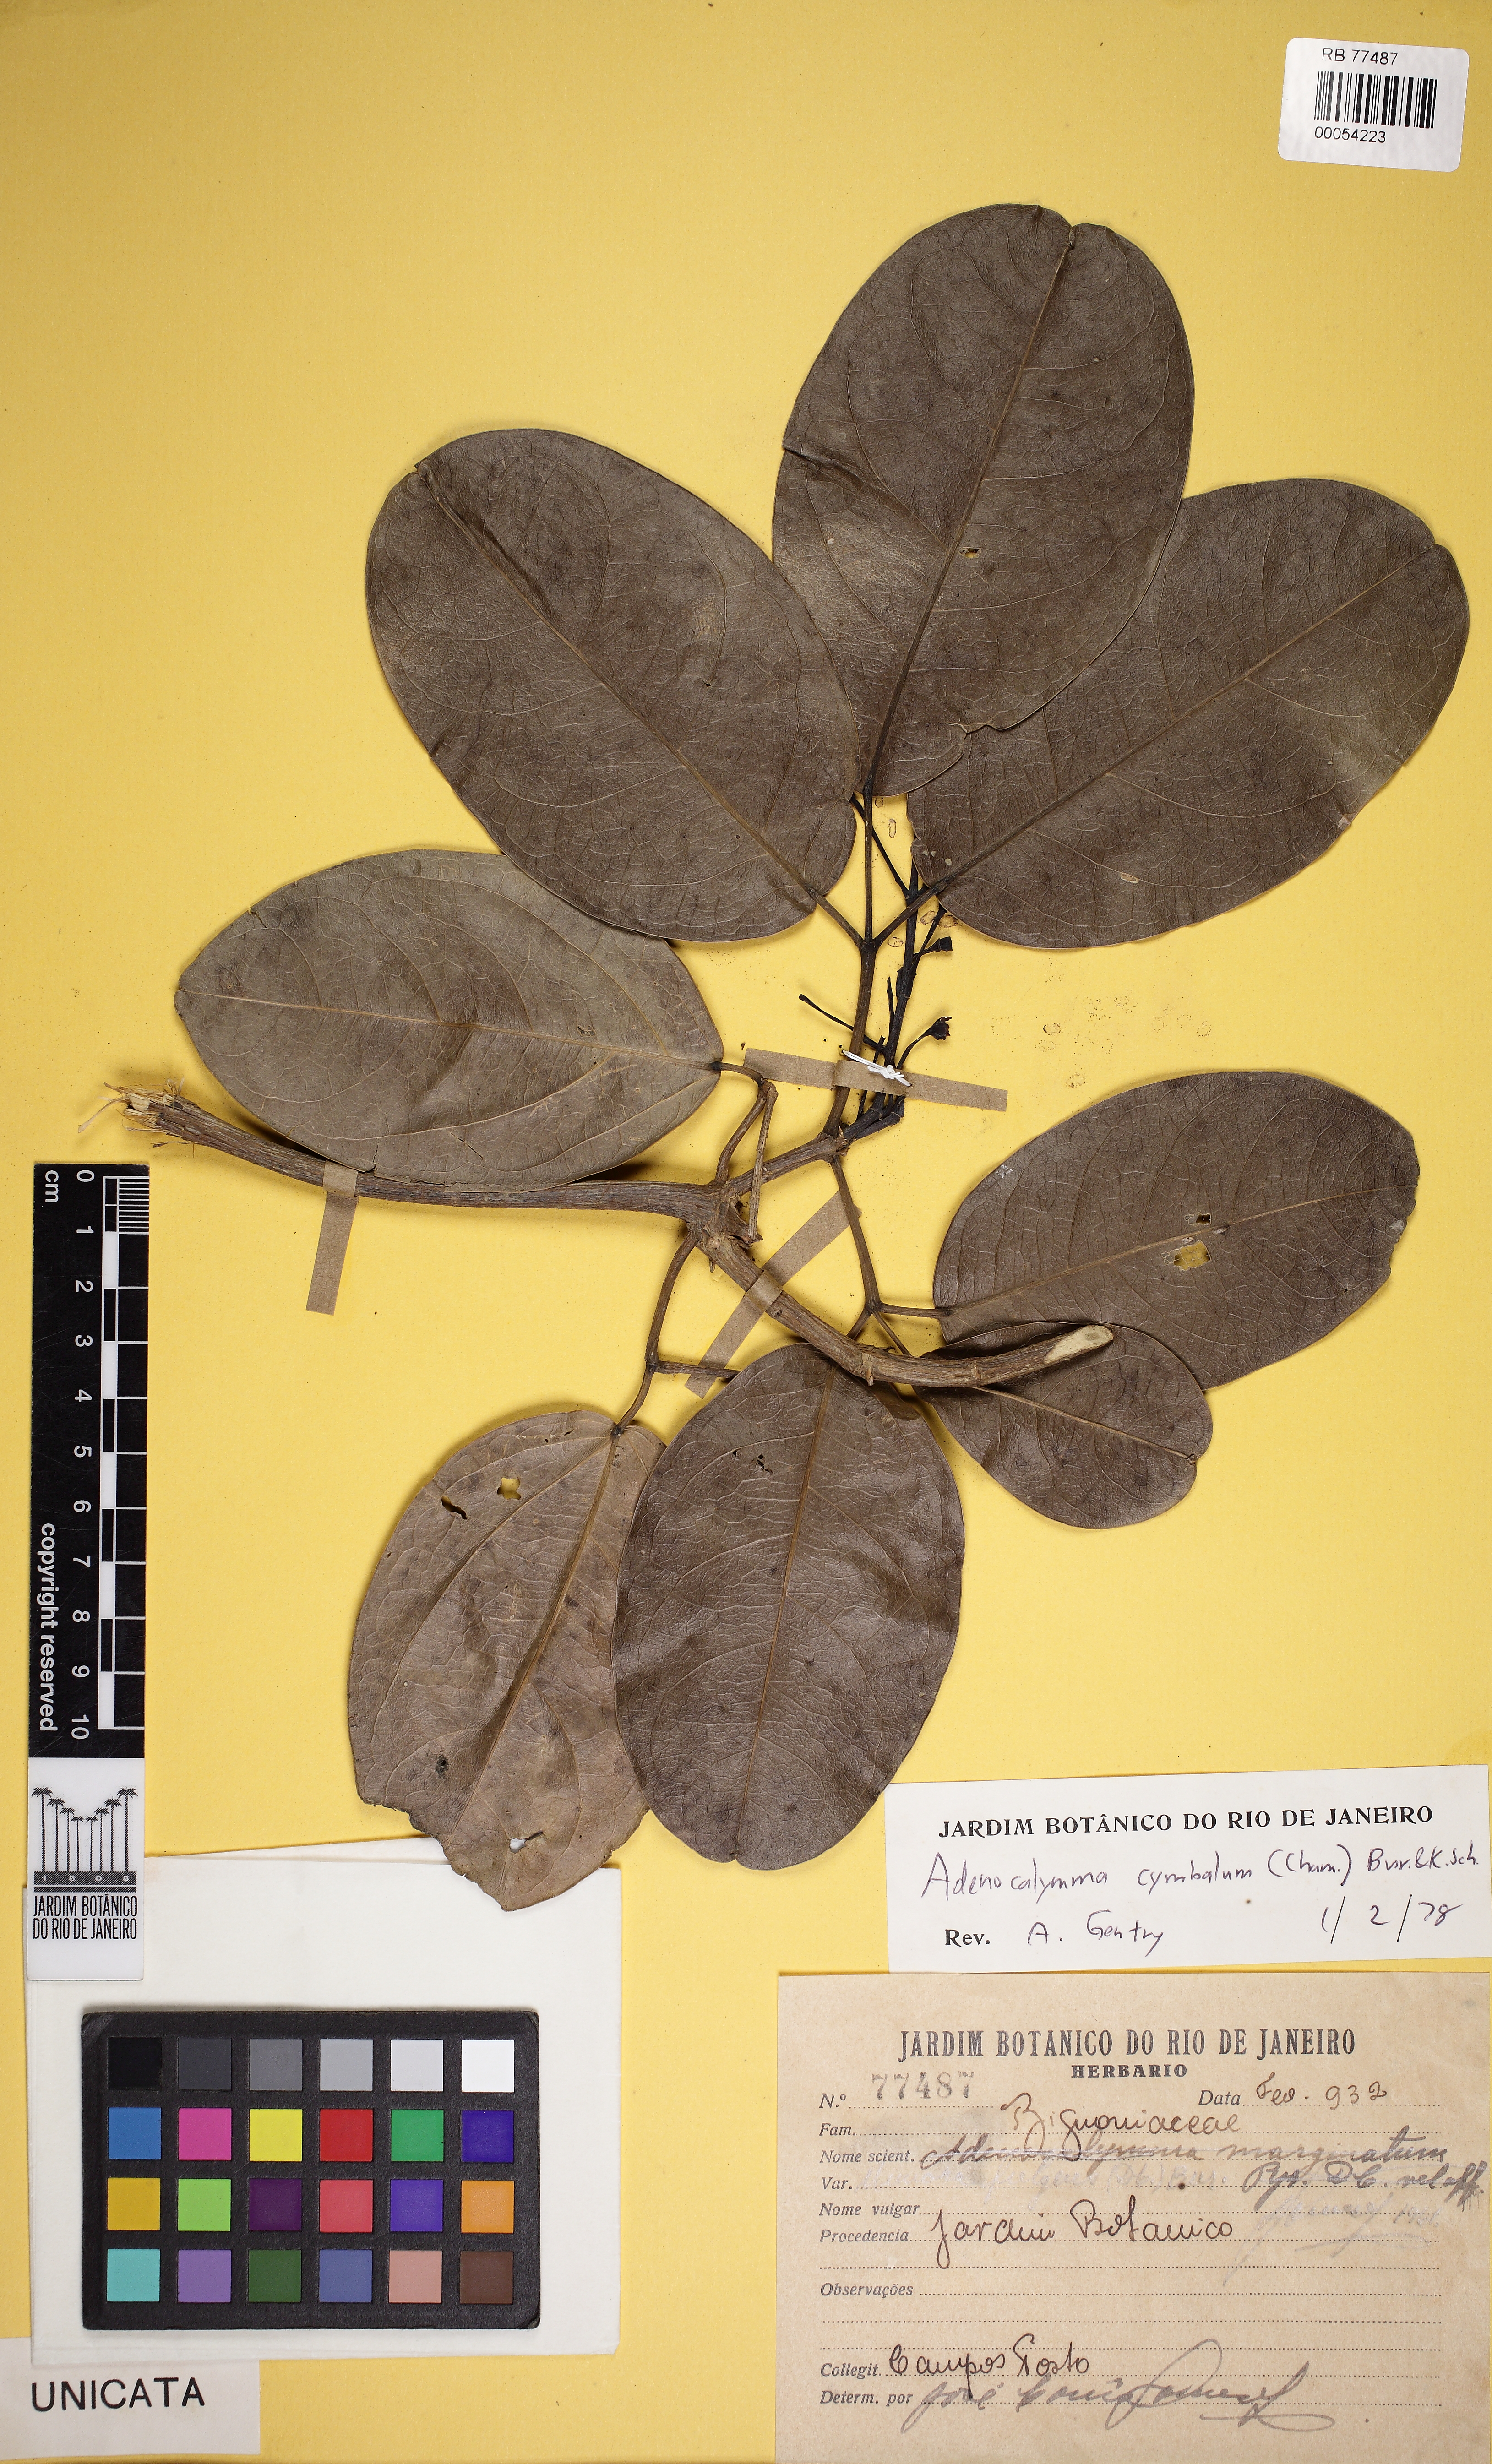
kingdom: Plantae
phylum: Tracheophyta
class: Magnoliopsida
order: Lamiales
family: Bignoniaceae
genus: Adenocalymma
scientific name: Adenocalymma cymbalum
